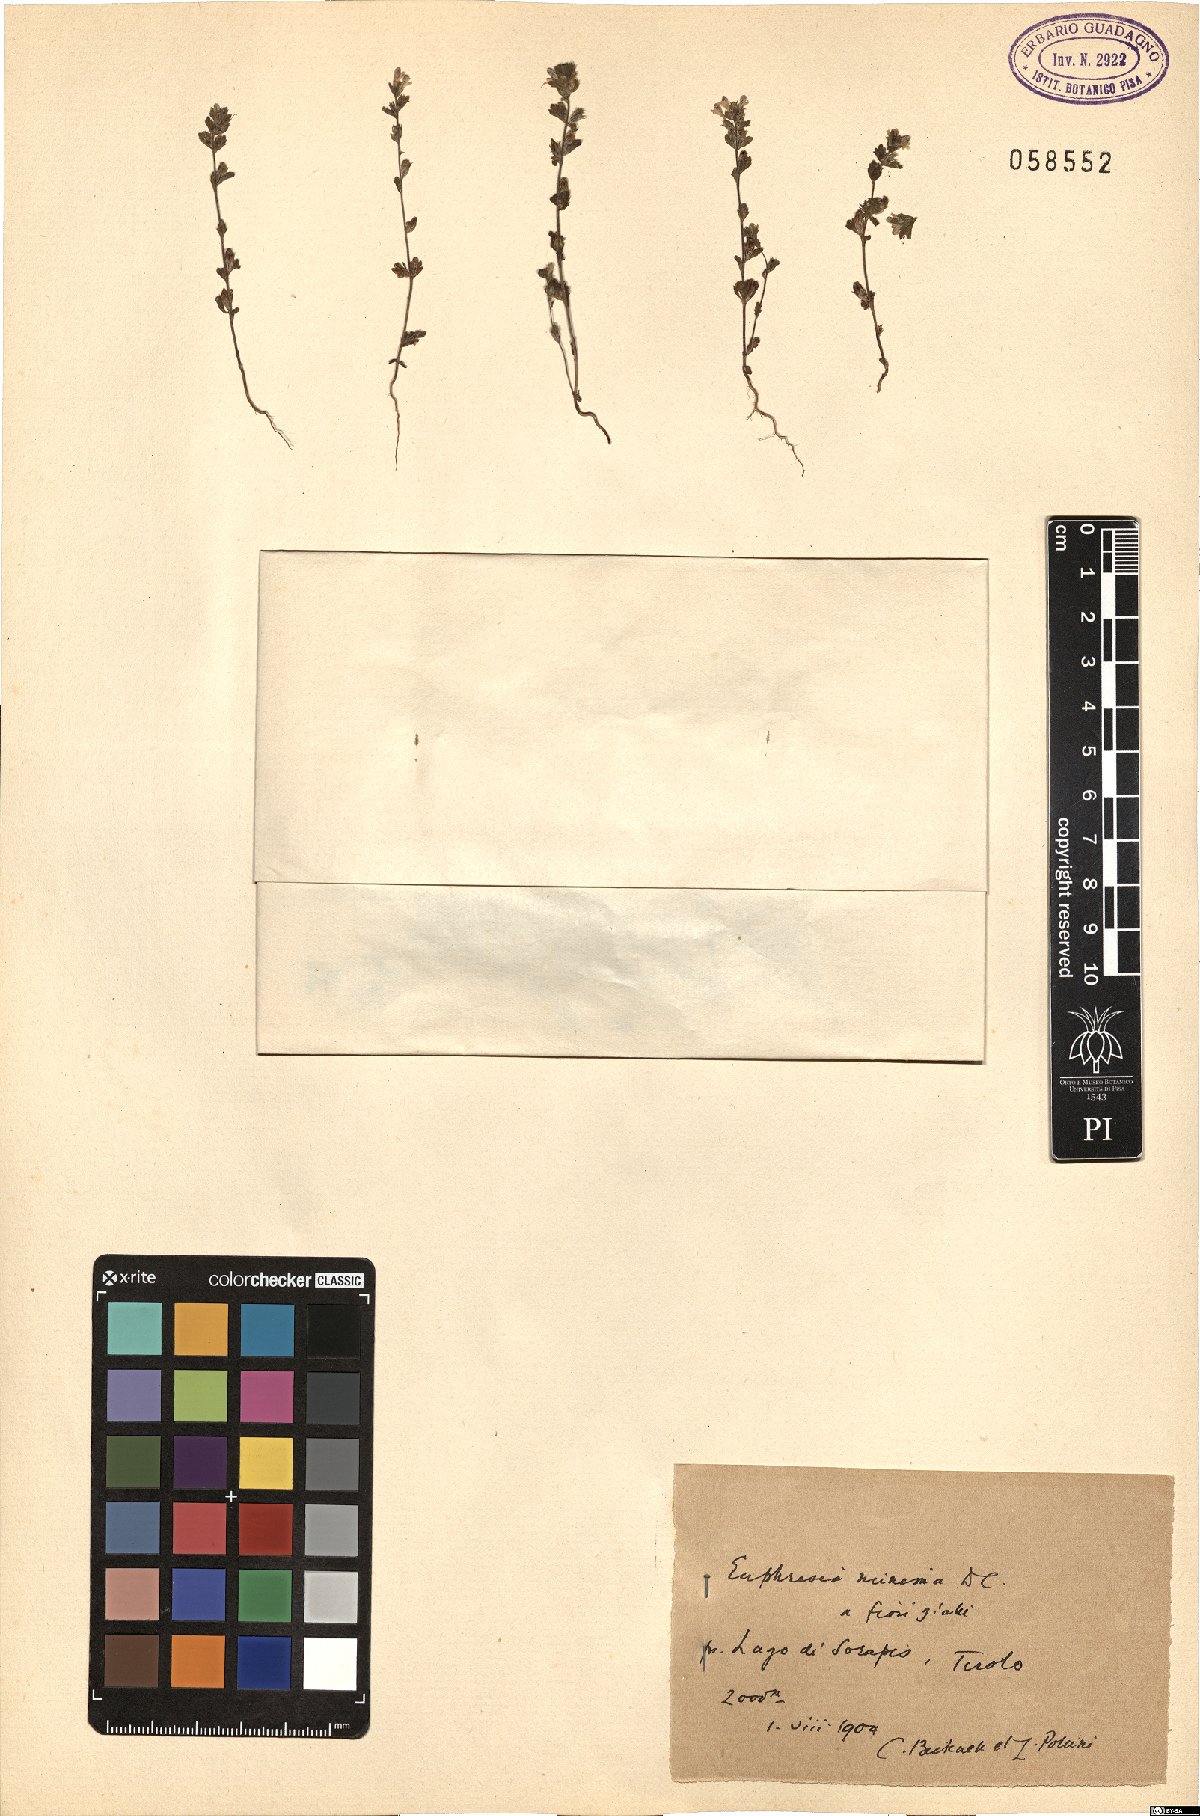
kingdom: Plantae
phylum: Tracheophyta
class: Magnoliopsida
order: Lamiales
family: Orobanchaceae
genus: Euphrasia
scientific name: Euphrasia minima
